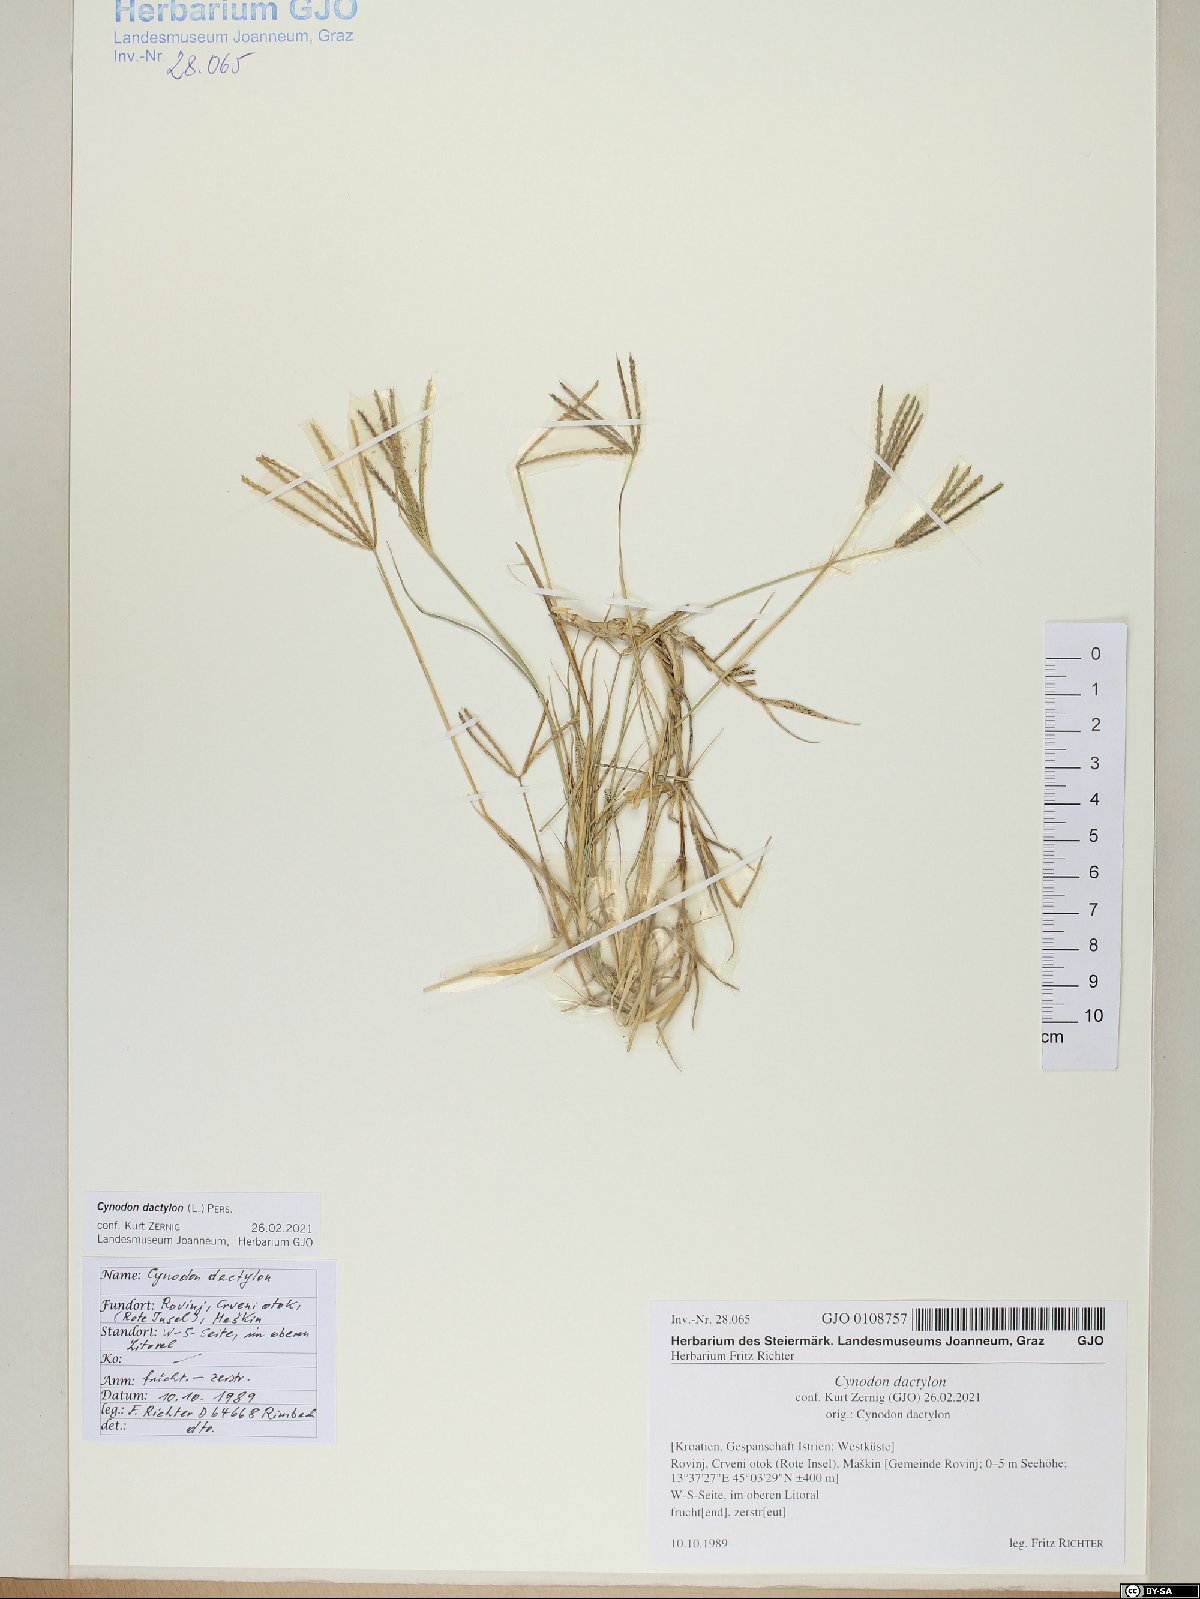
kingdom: Plantae
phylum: Tracheophyta
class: Liliopsida
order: Poales
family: Poaceae
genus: Cynodon
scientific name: Cynodon dactylon
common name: Bermuda grass
